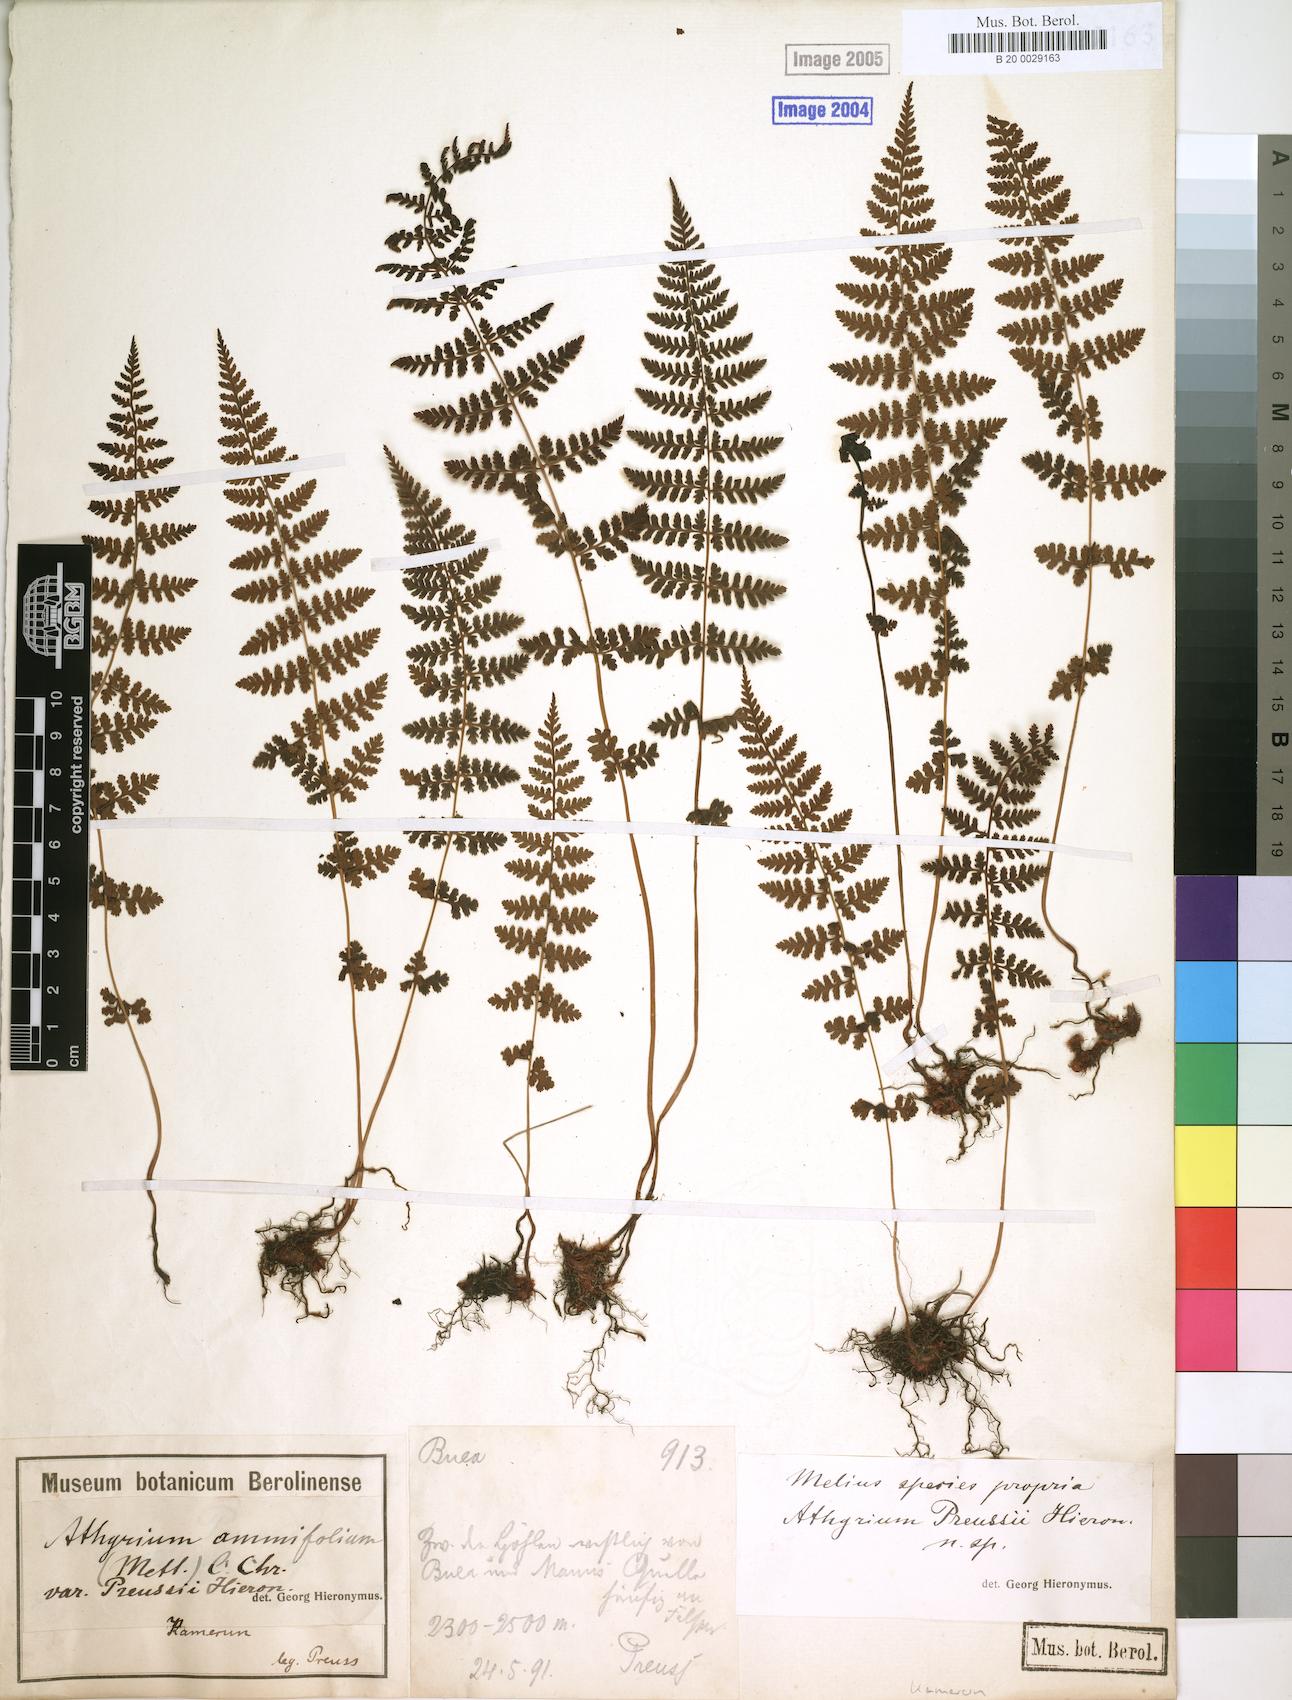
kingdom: Plantae
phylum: Tracheophyta
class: Polypodiopsida
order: Polypodiales
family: Athyriaceae
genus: Athyrium
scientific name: Athyrium
